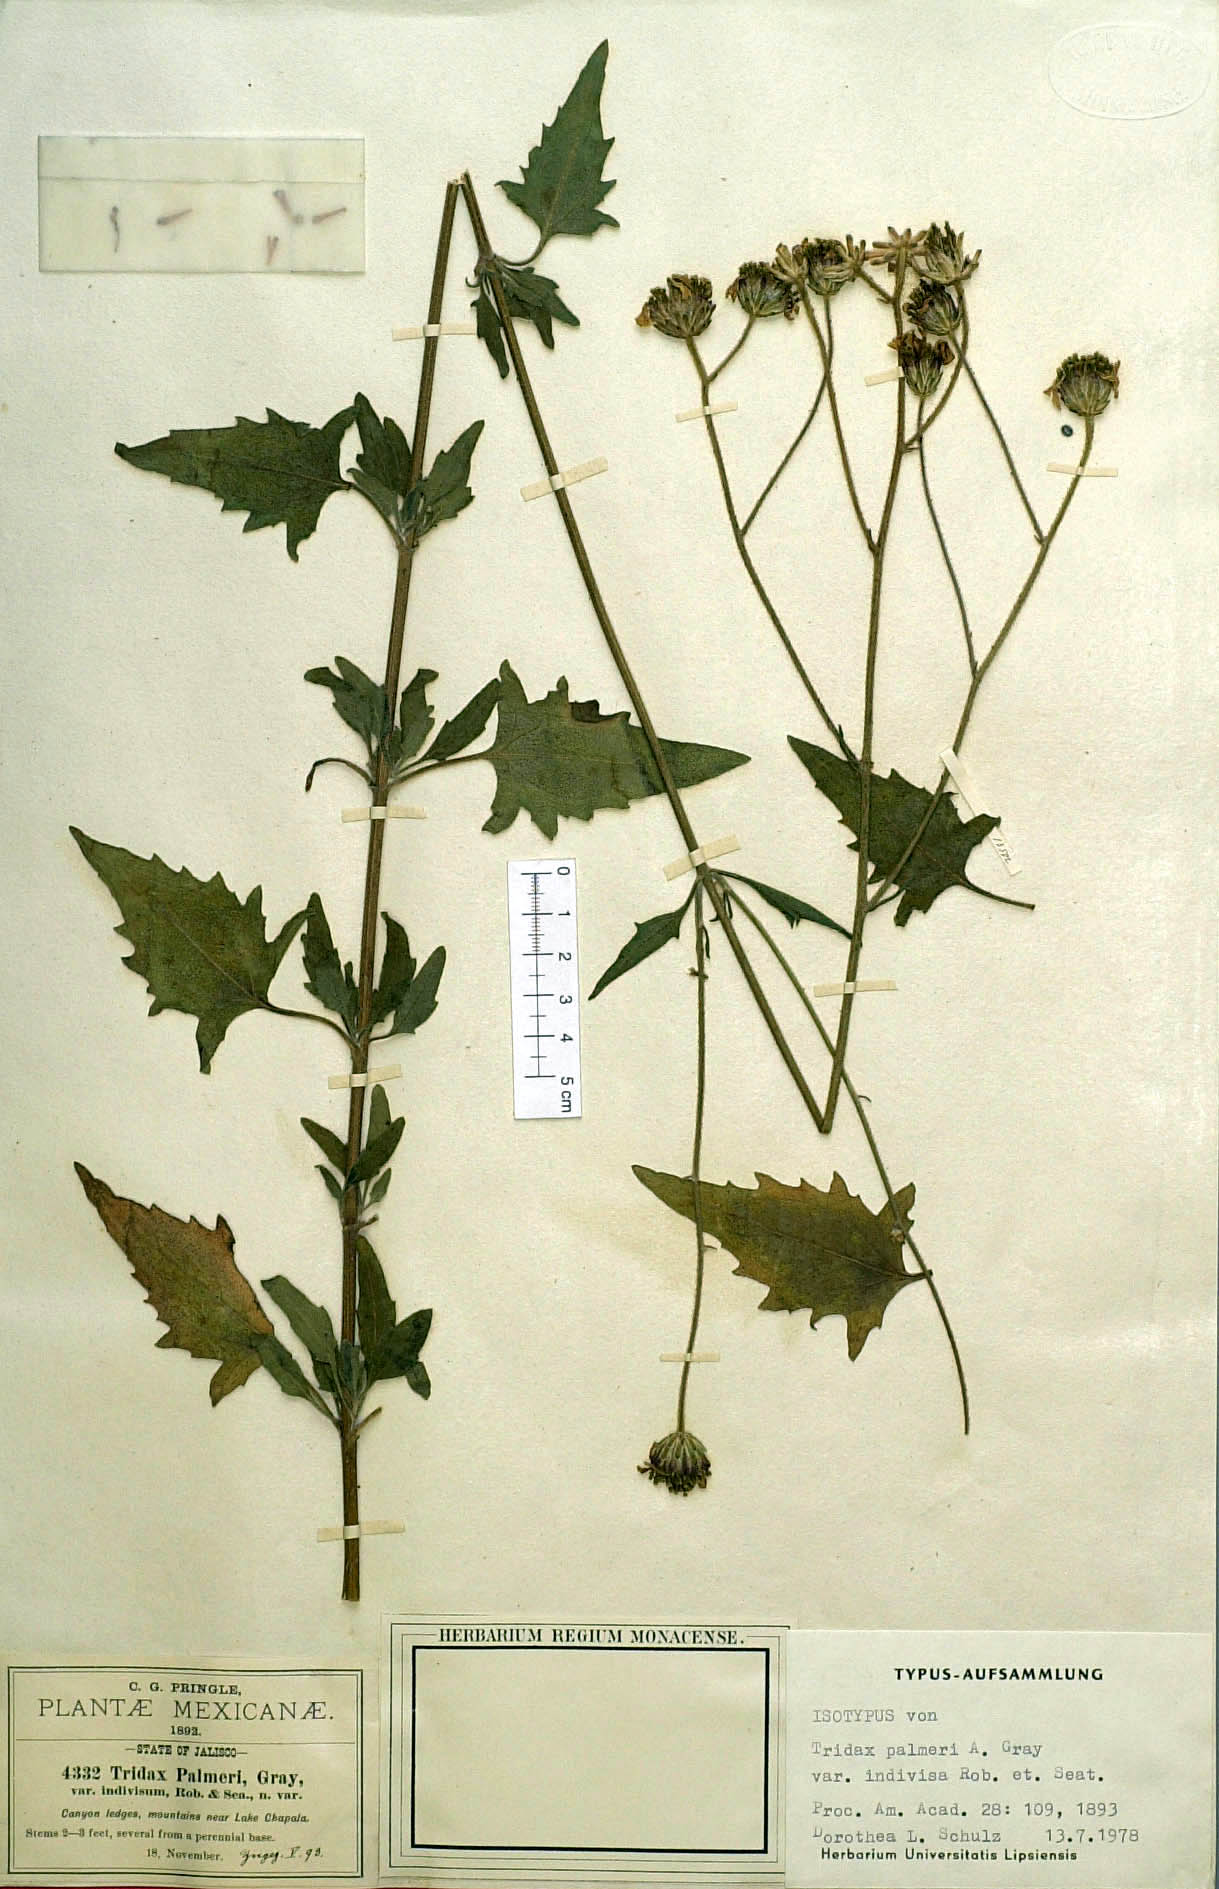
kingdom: Plantae
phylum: Tracheophyta
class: Magnoliopsida
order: Asterales
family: Asteraceae
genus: Tridax
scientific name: Tridax palmeri
